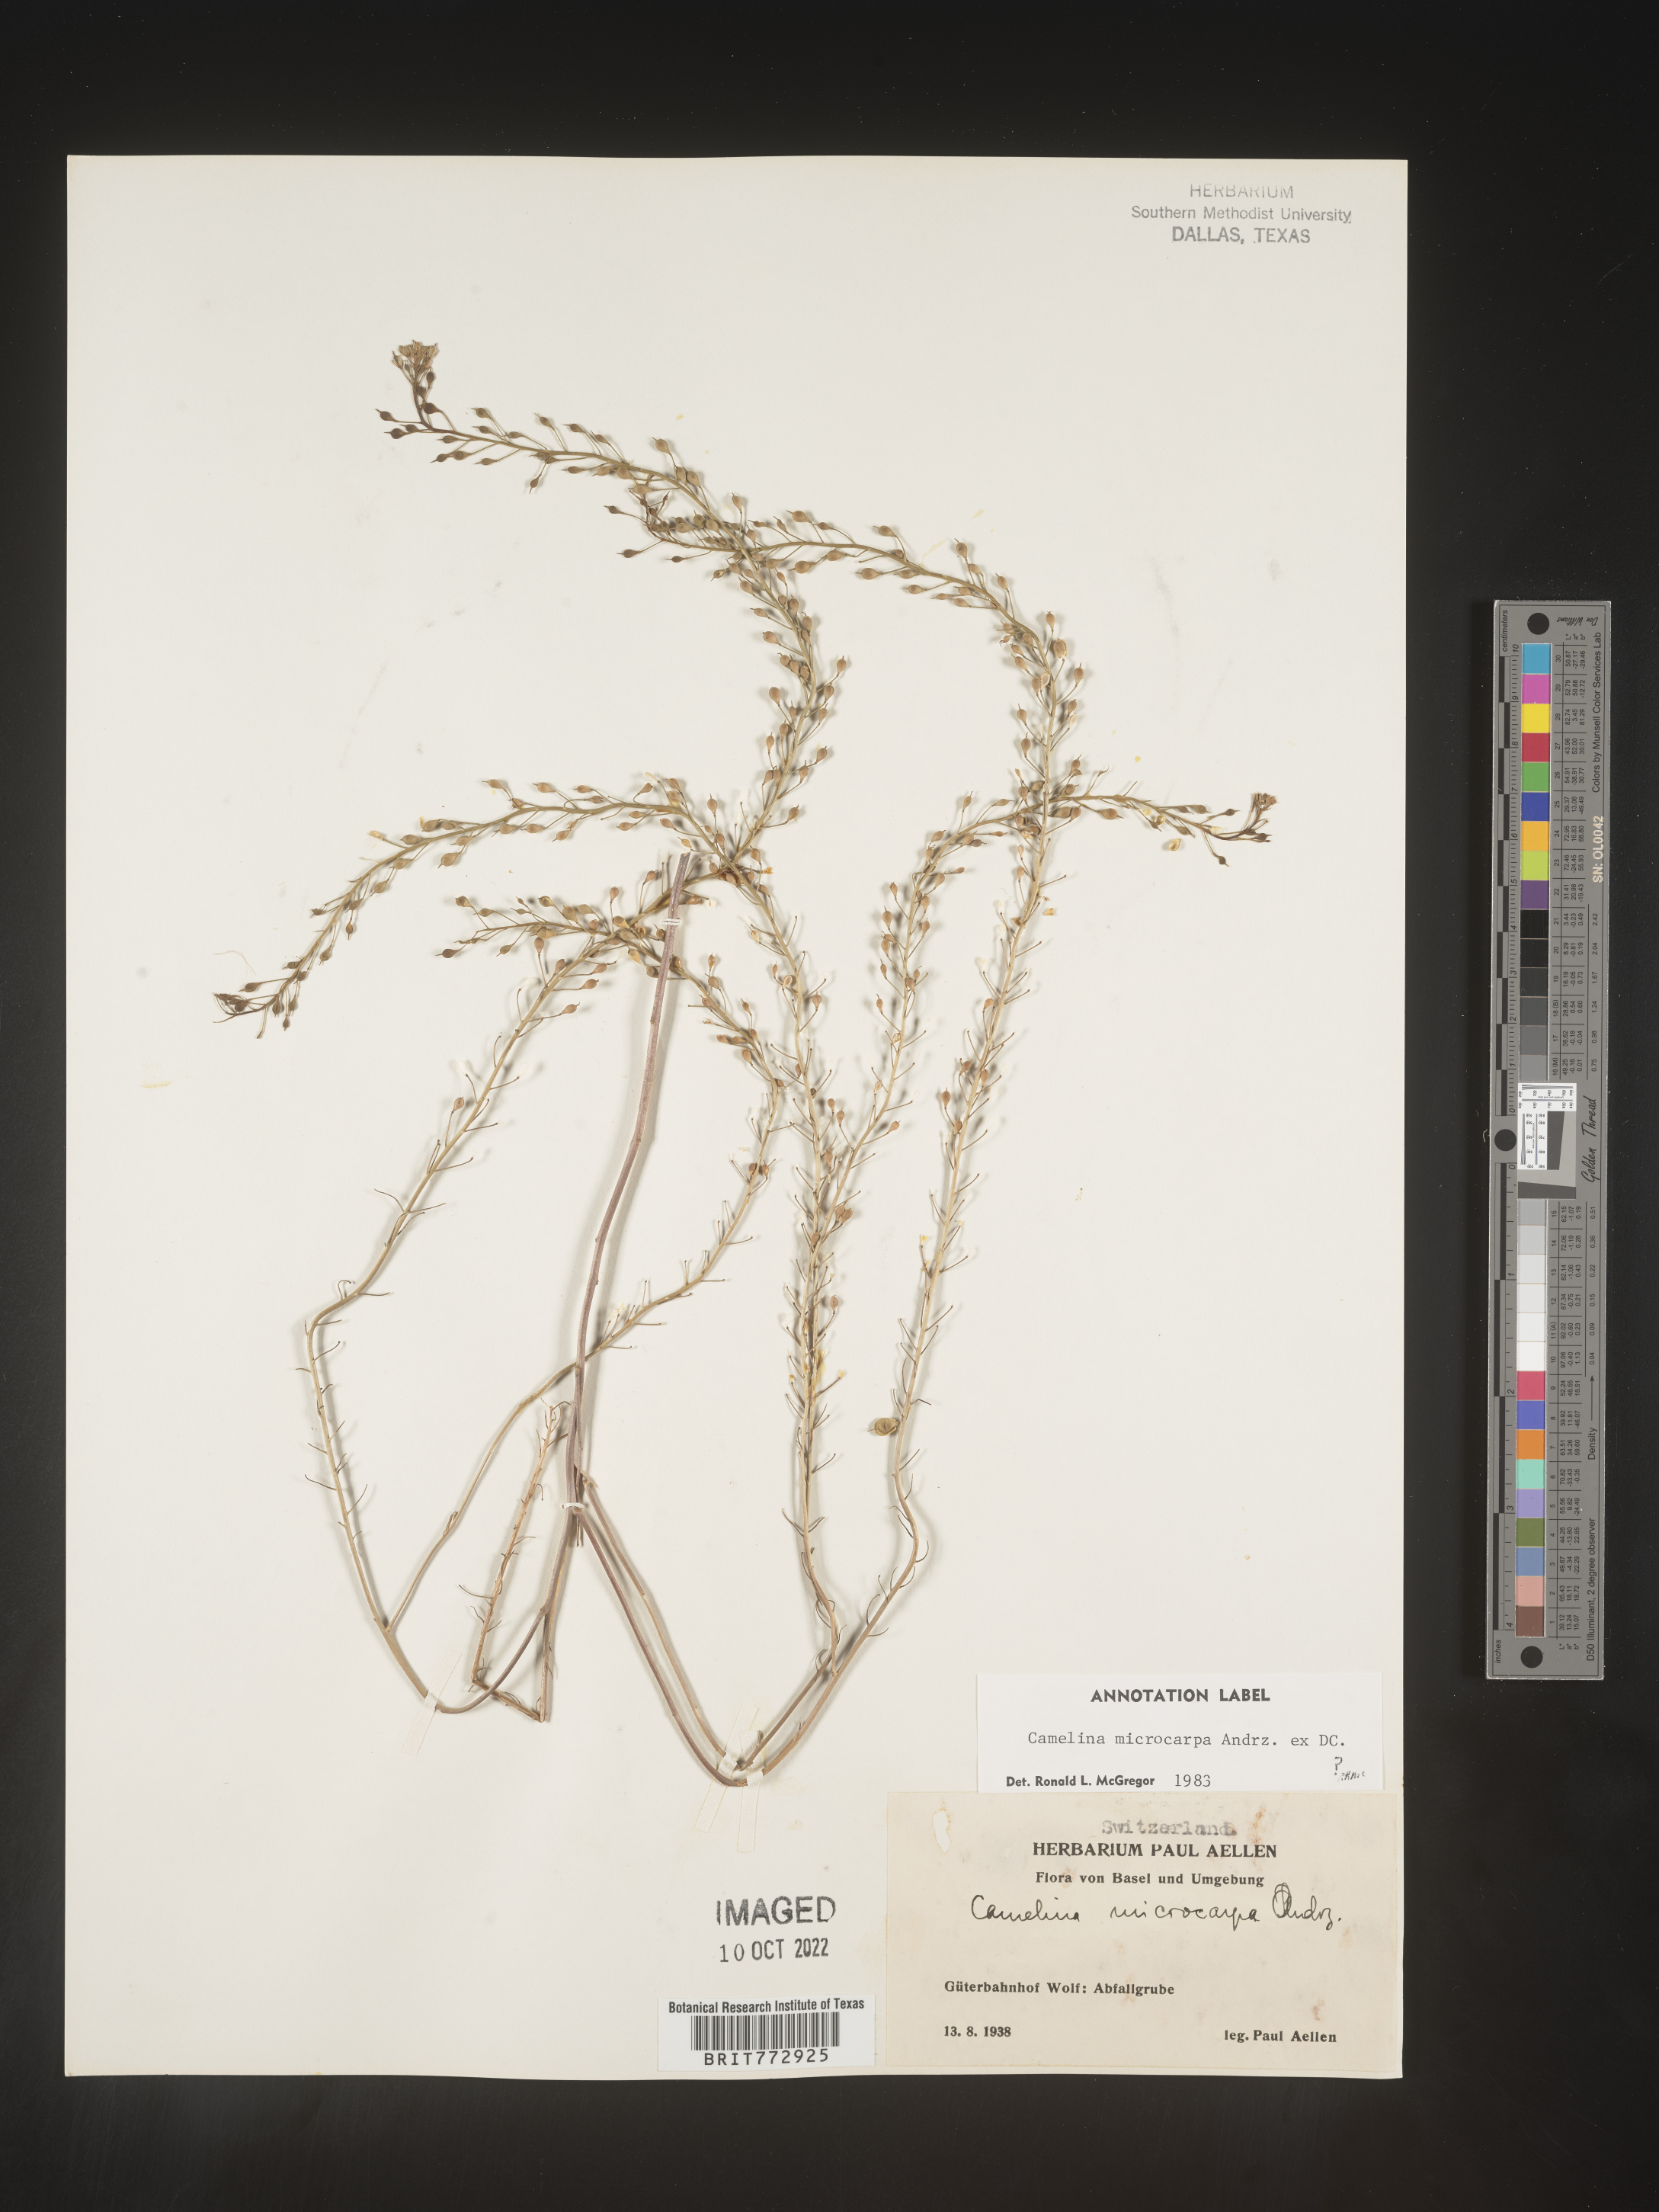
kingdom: Plantae
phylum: Tracheophyta
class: Magnoliopsida
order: Brassicales
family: Brassicaceae
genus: Camelina
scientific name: Camelina
